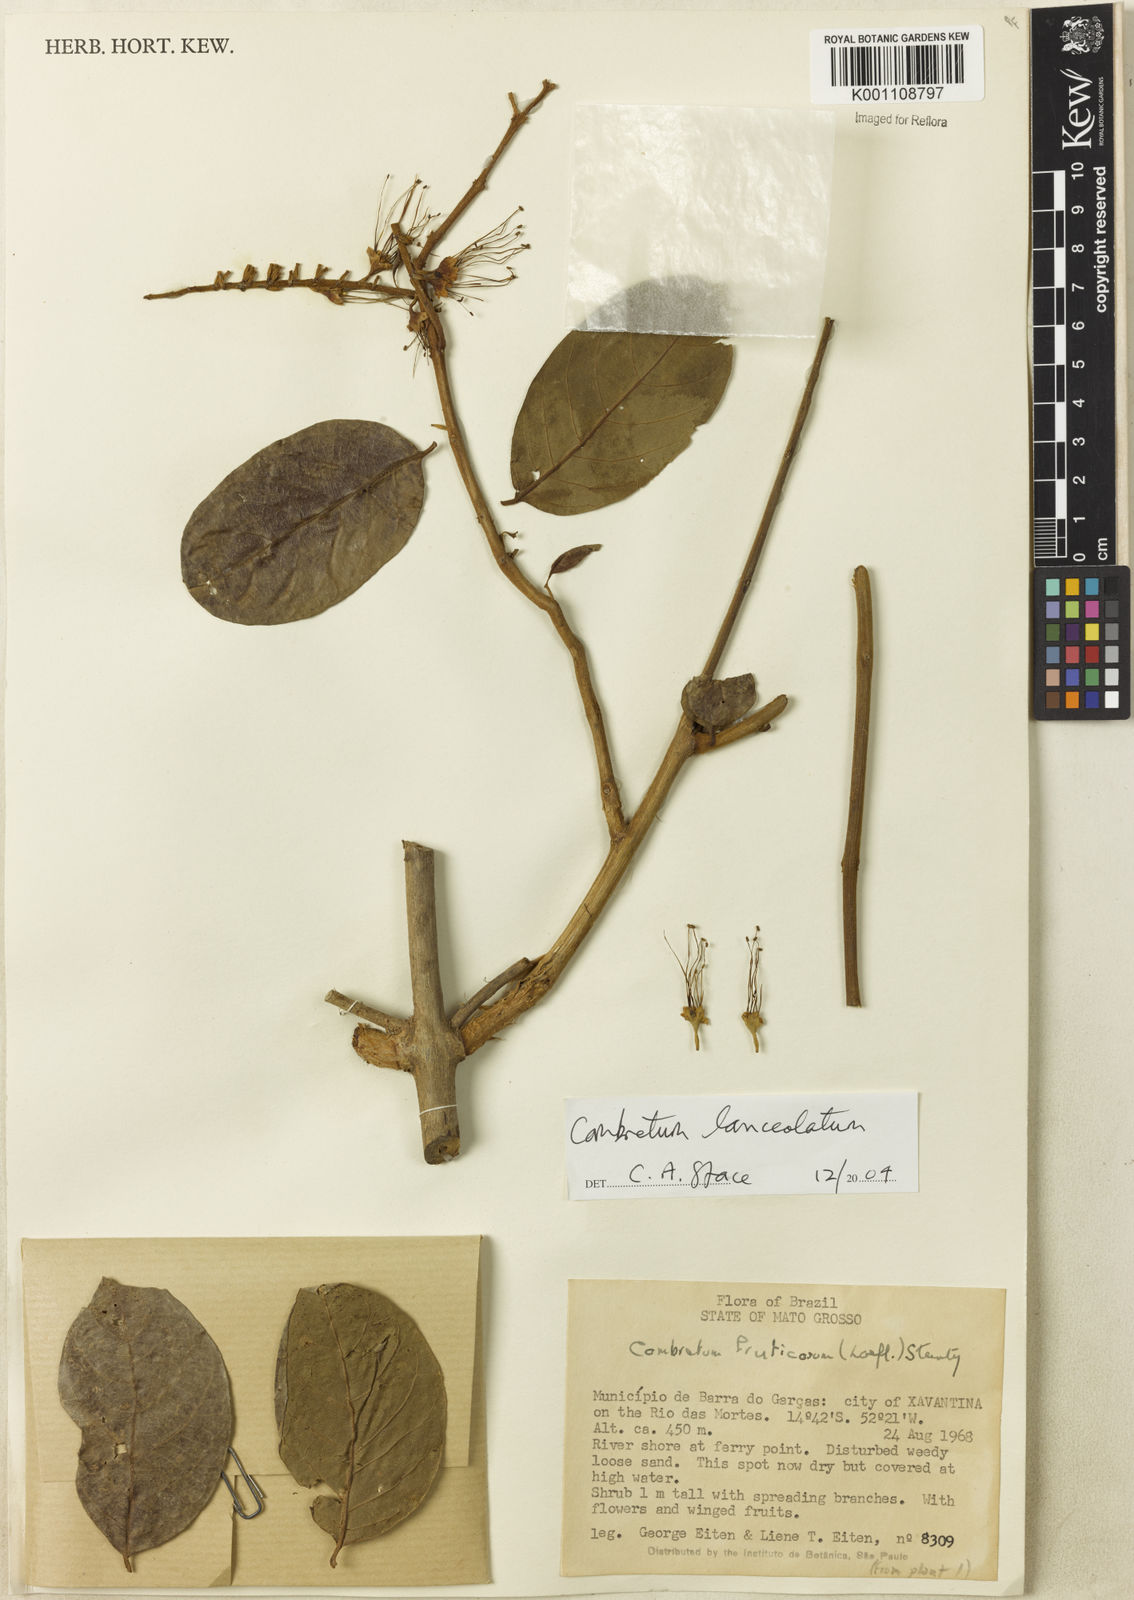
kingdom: Plantae
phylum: Tracheophyta
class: Magnoliopsida
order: Myrtales
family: Combretaceae
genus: Combretum
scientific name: Combretum lanceolatum
